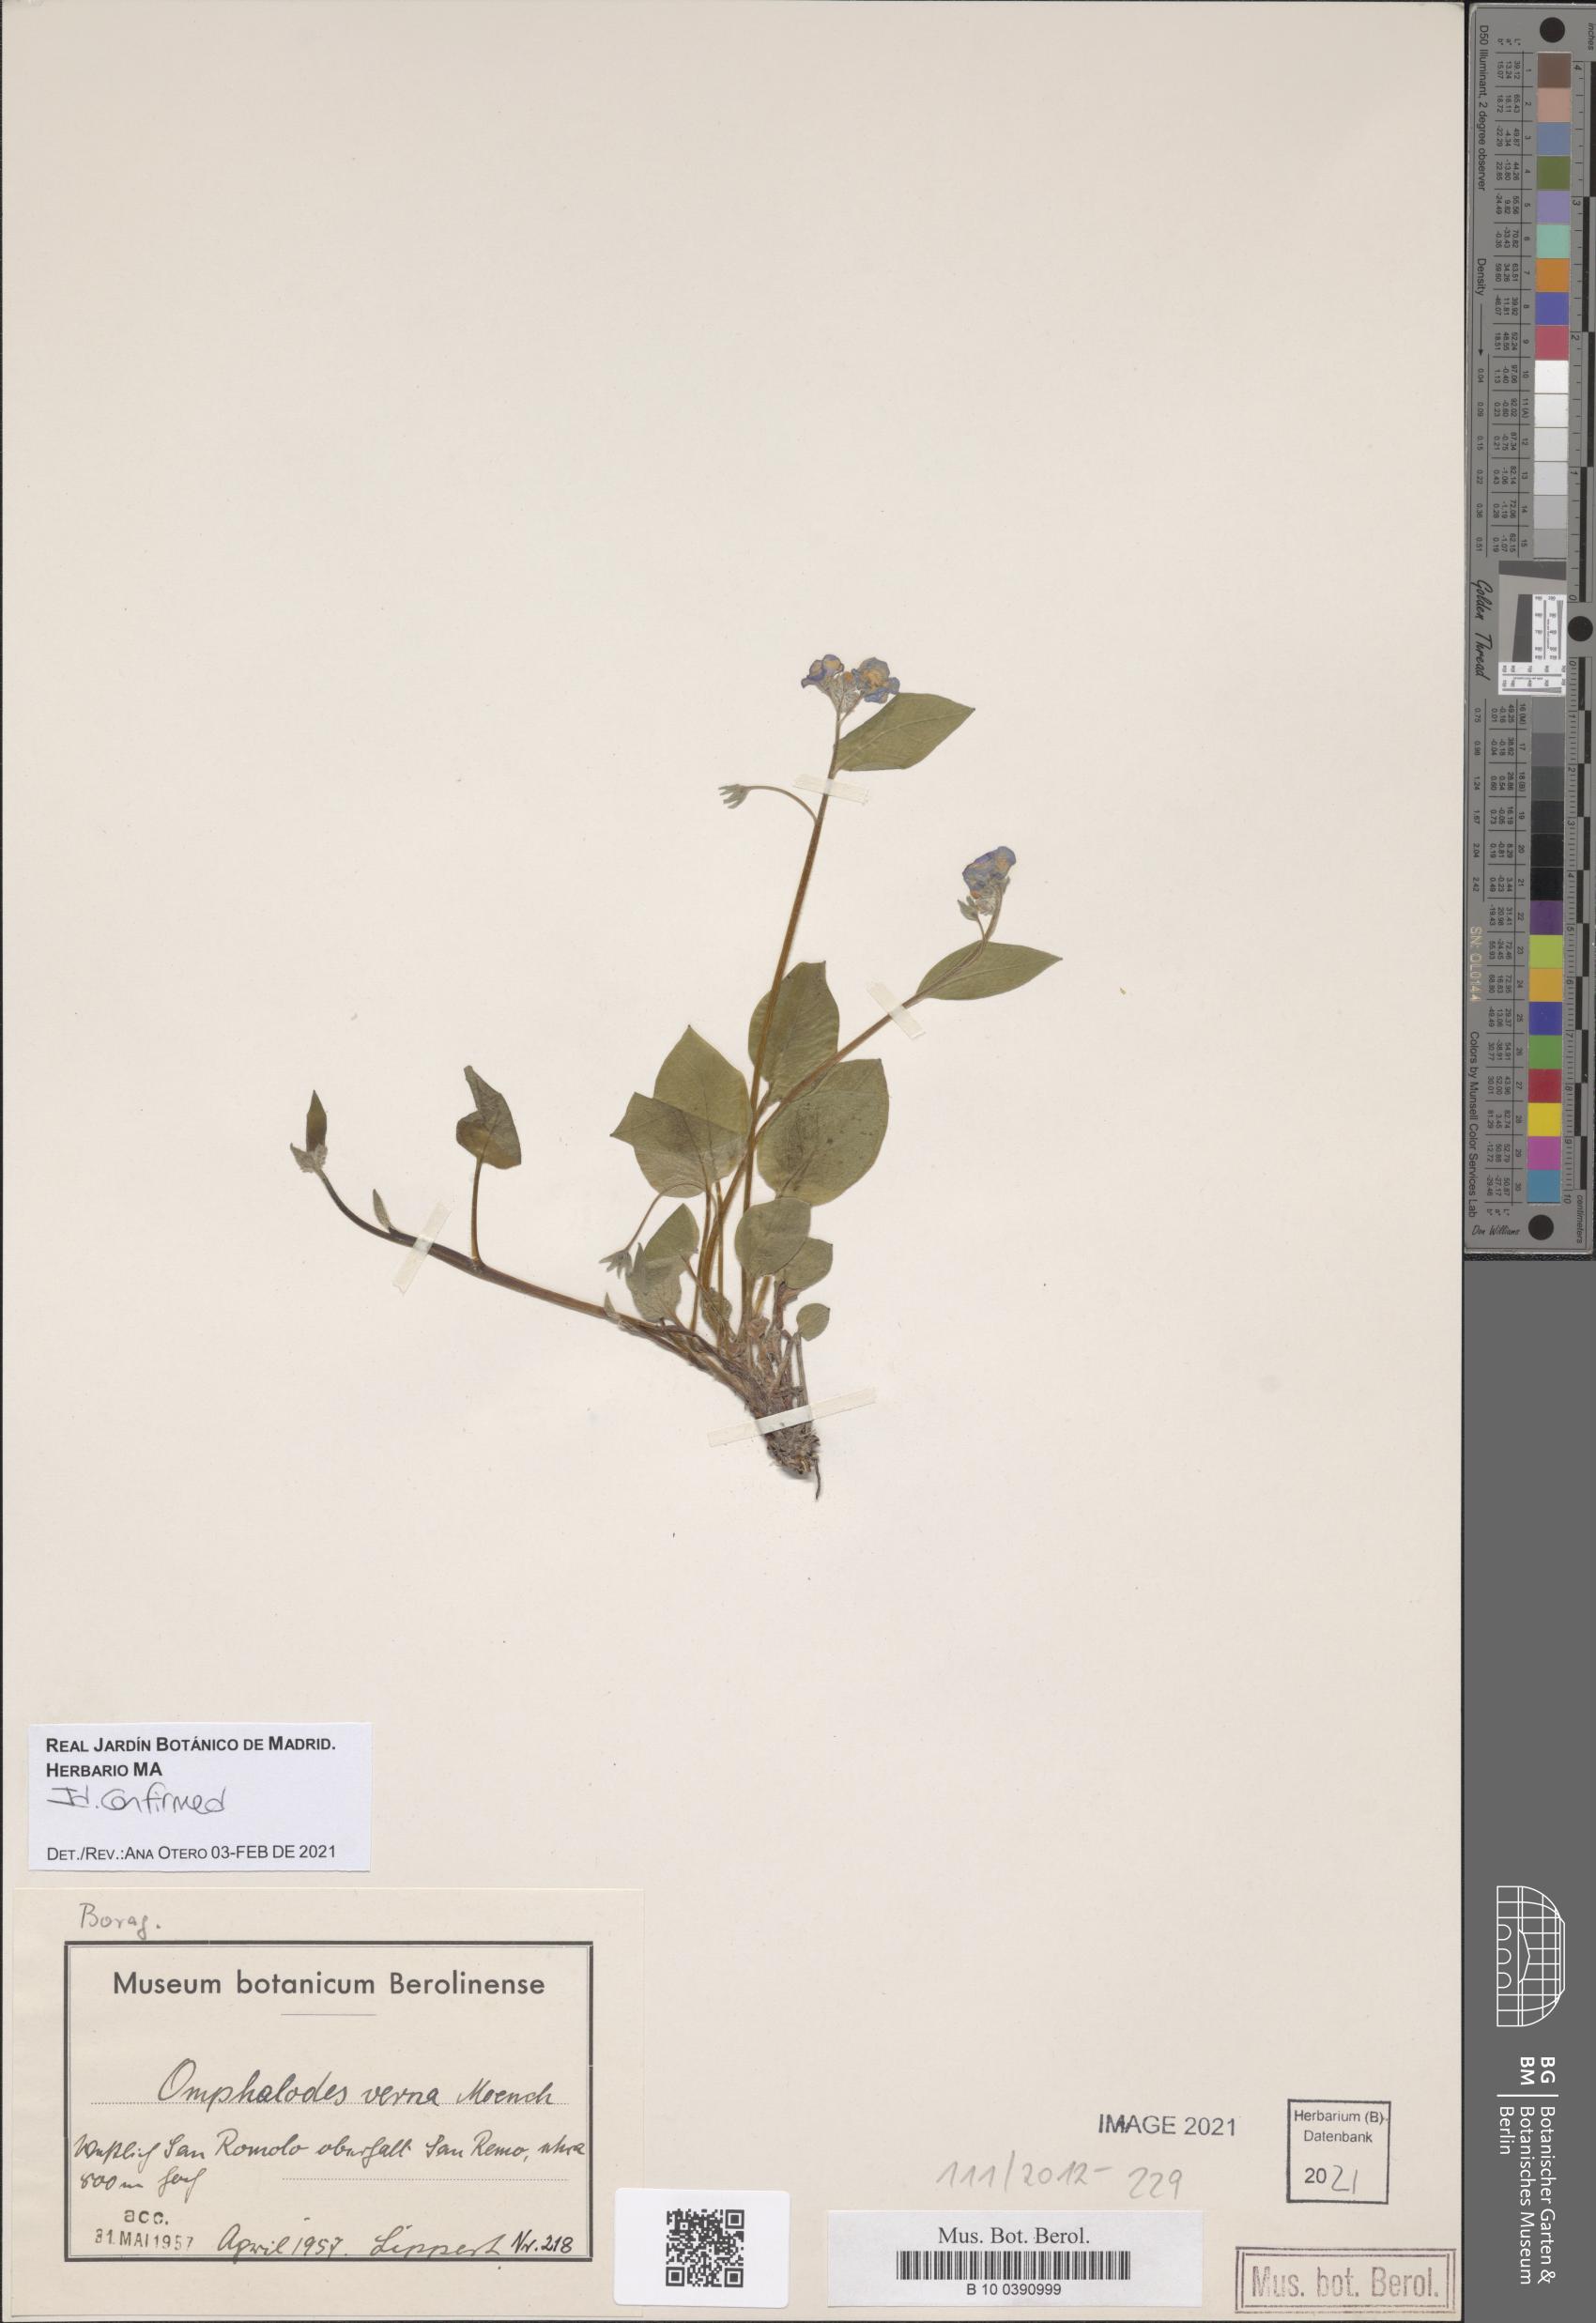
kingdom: Plantae
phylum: Tracheophyta
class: Magnoliopsida
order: Boraginales
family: Boraginaceae
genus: Omphalodes
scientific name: Omphalodes verna
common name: Blue-eyed-mary
